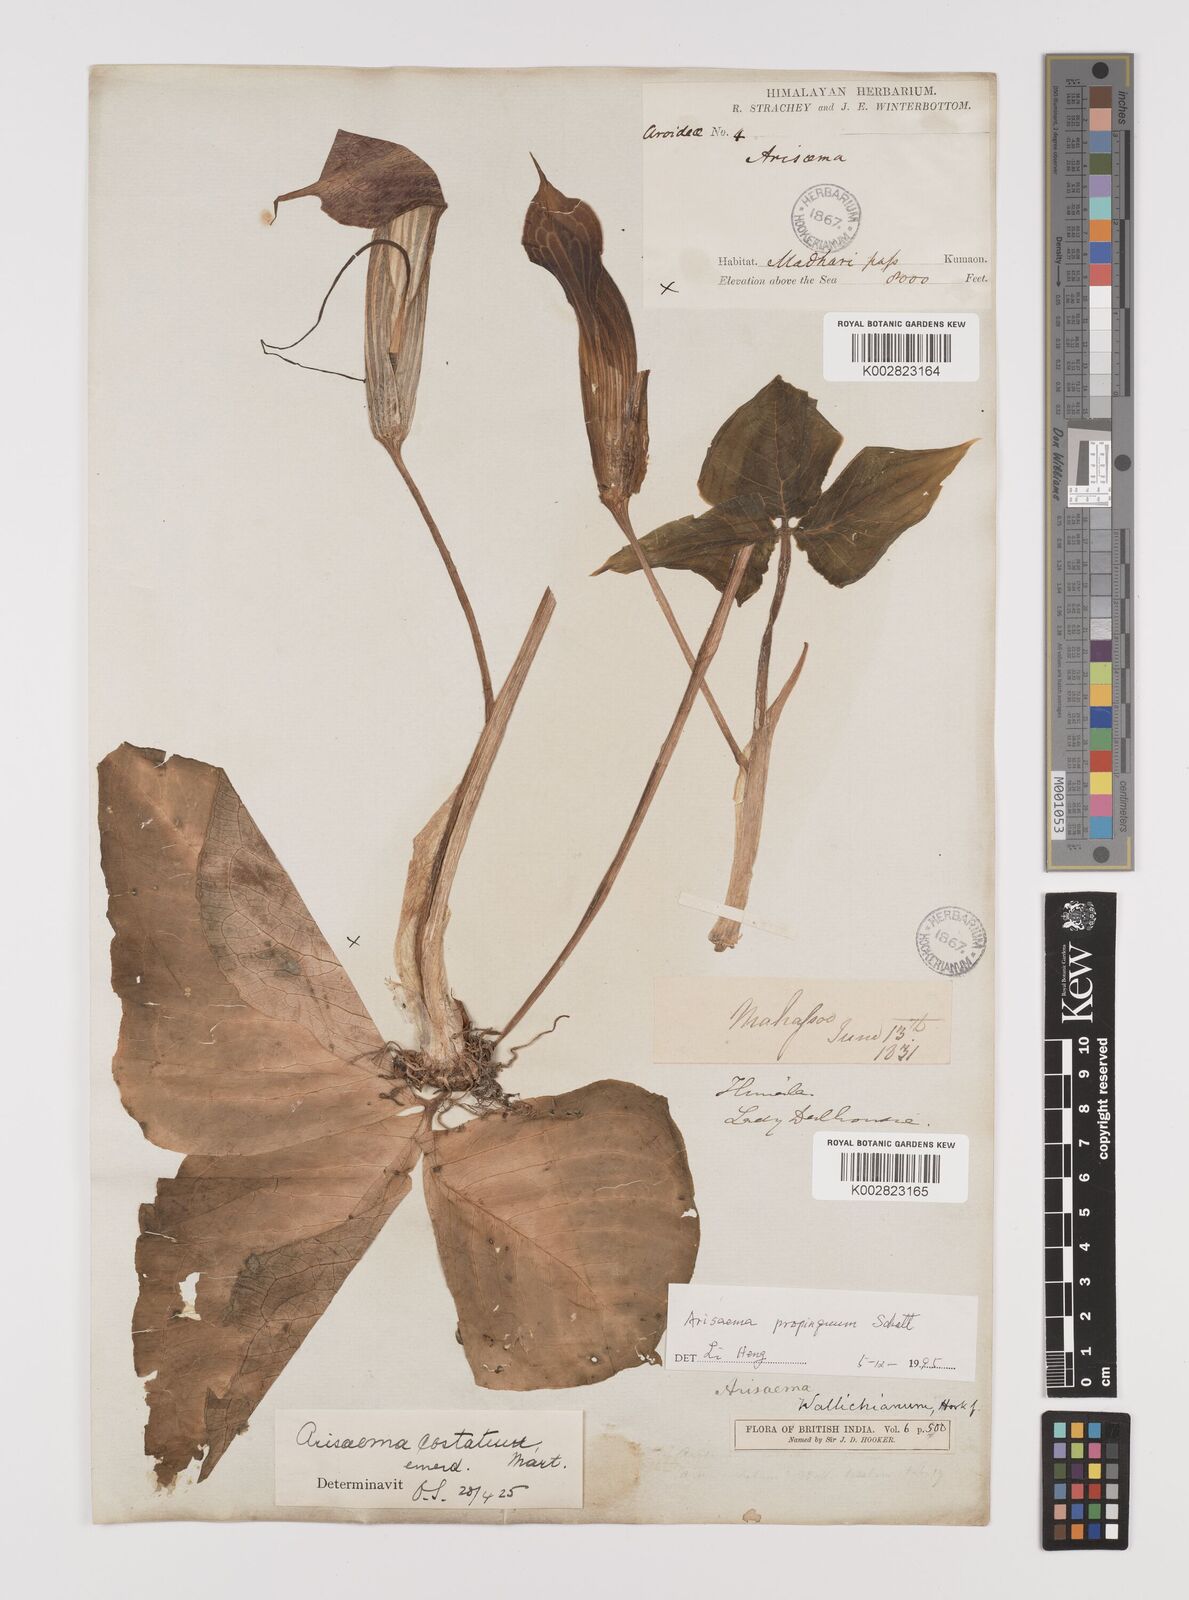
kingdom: Plantae
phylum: Tracheophyta
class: Liliopsida
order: Alismatales
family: Araceae
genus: Arisaema
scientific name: Arisaema propinquum
